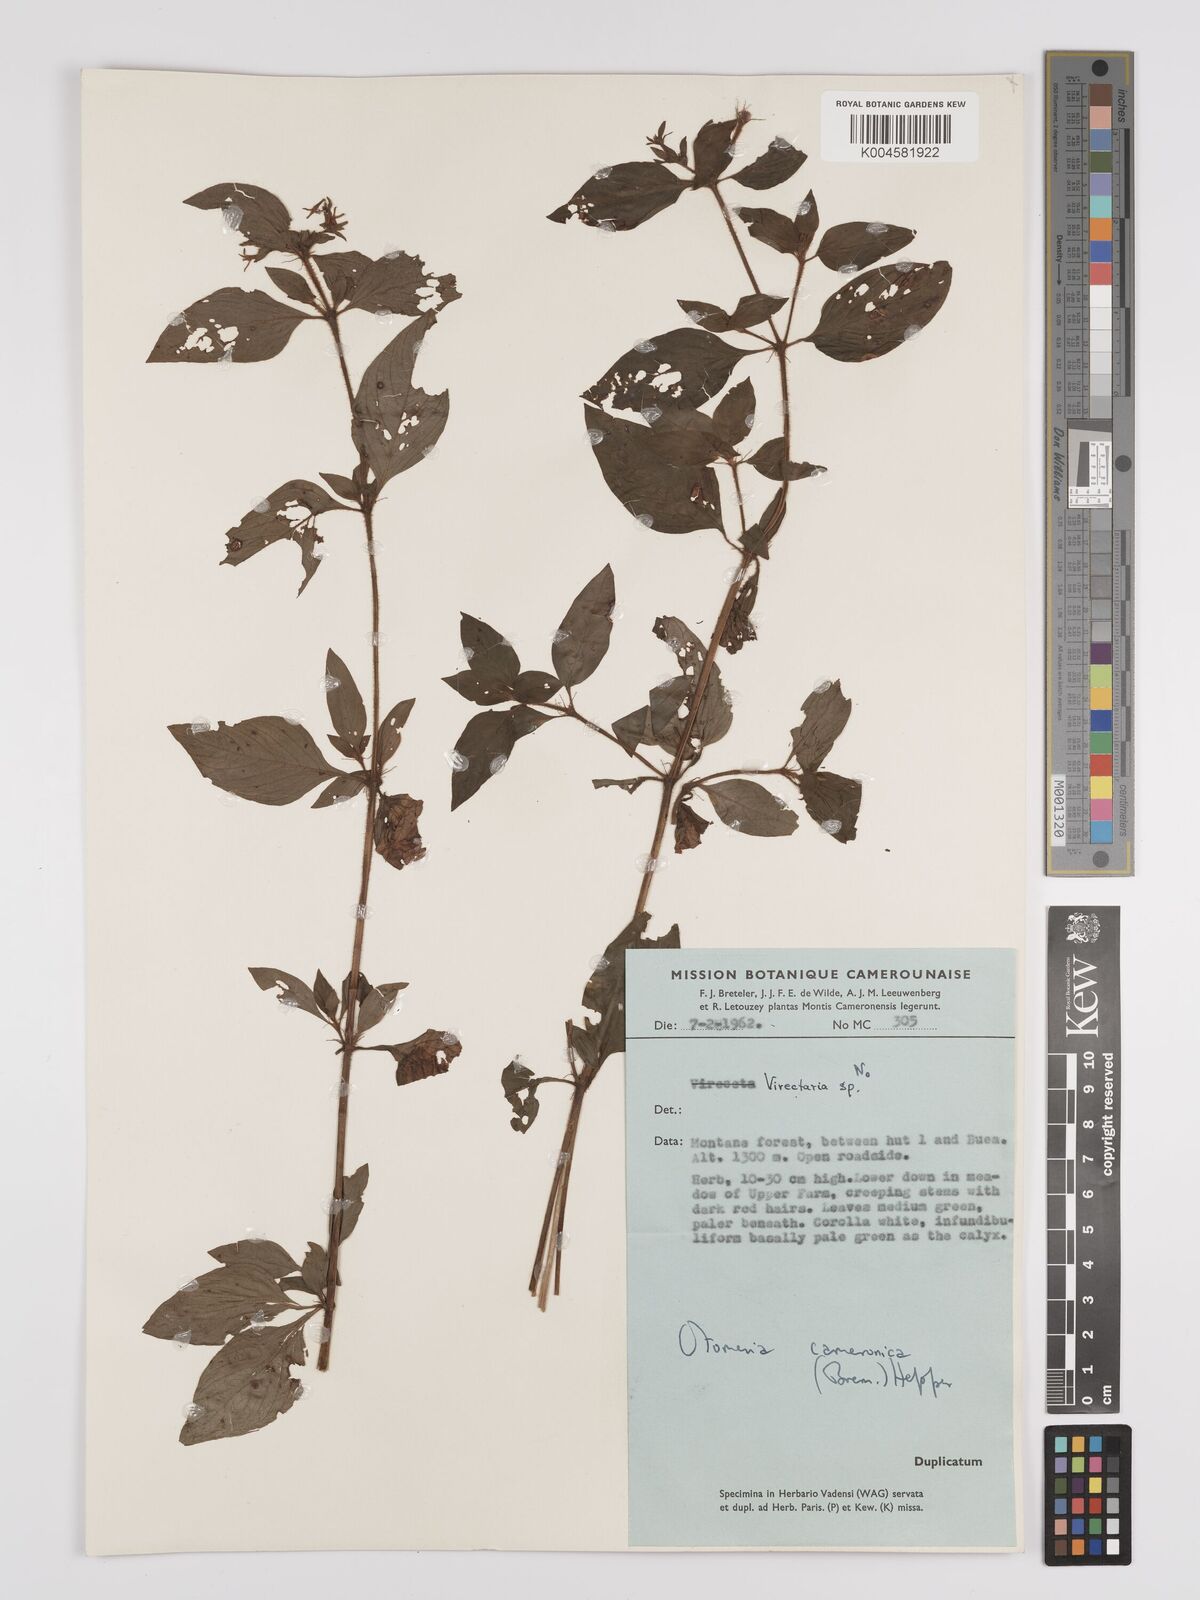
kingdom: Plantae
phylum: Tracheophyta
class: Magnoliopsida
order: Gentianales
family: Rubiaceae
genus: Otomeria
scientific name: Otomeria cameronica
